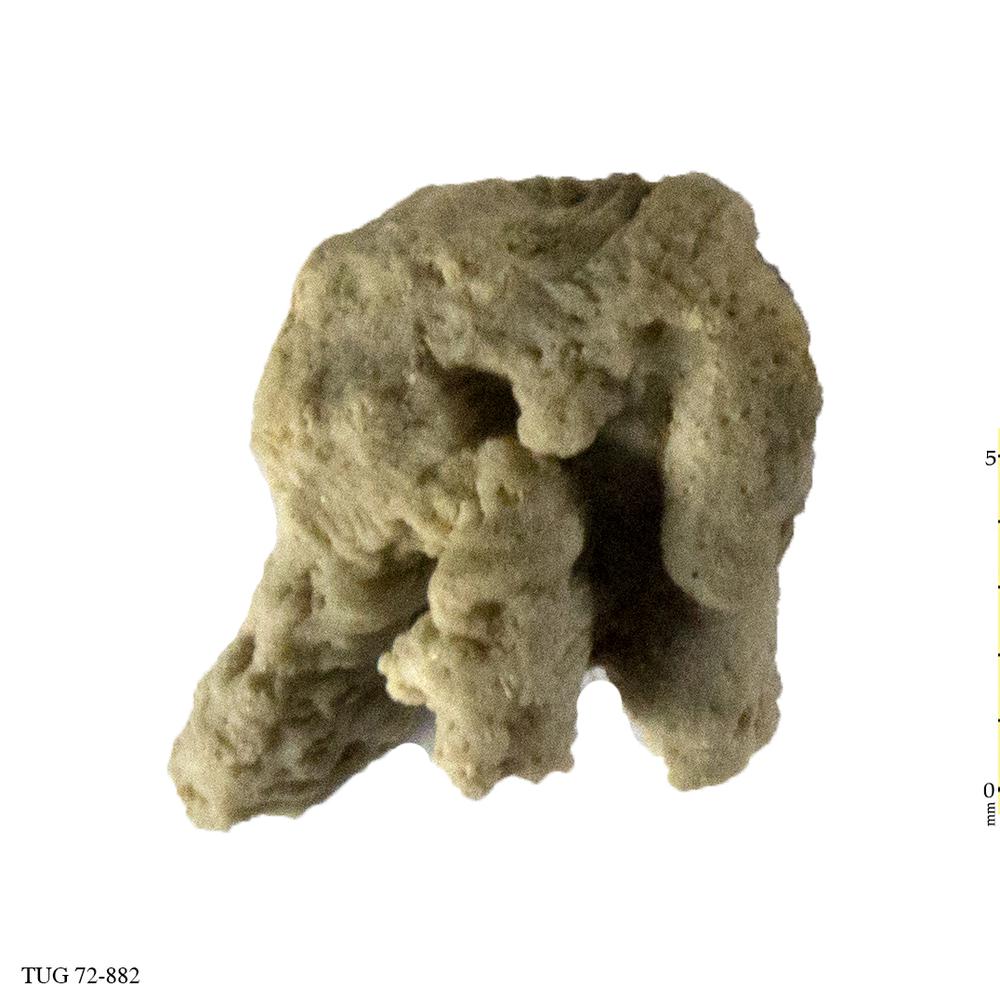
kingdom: Animalia
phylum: Echinodermata
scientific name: Echinodermata
